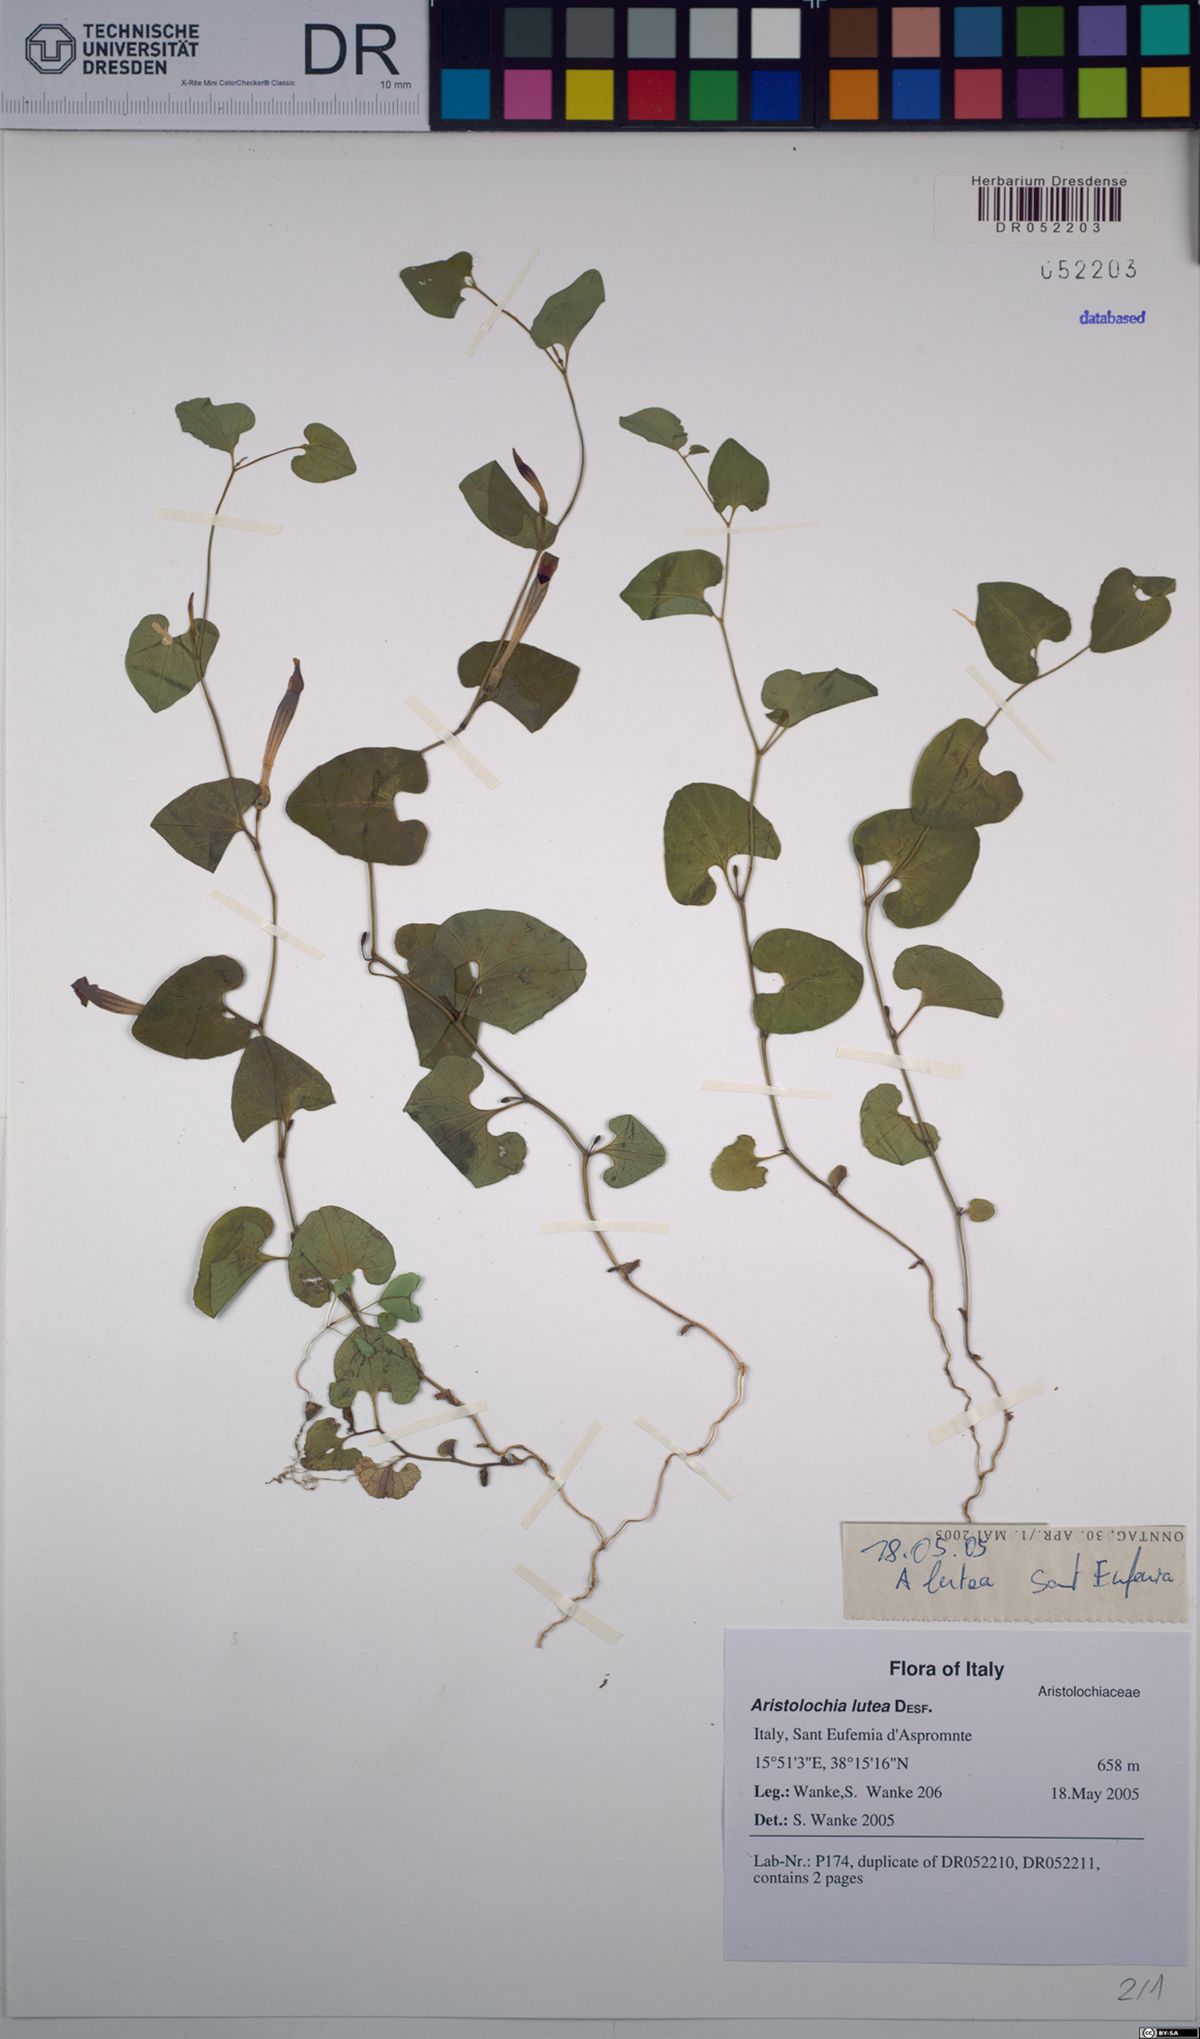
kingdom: Plantae
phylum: Tracheophyta
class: Magnoliopsida
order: Piperales
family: Aristolochiaceae
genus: Aristolochia
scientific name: Aristolochia lutea
